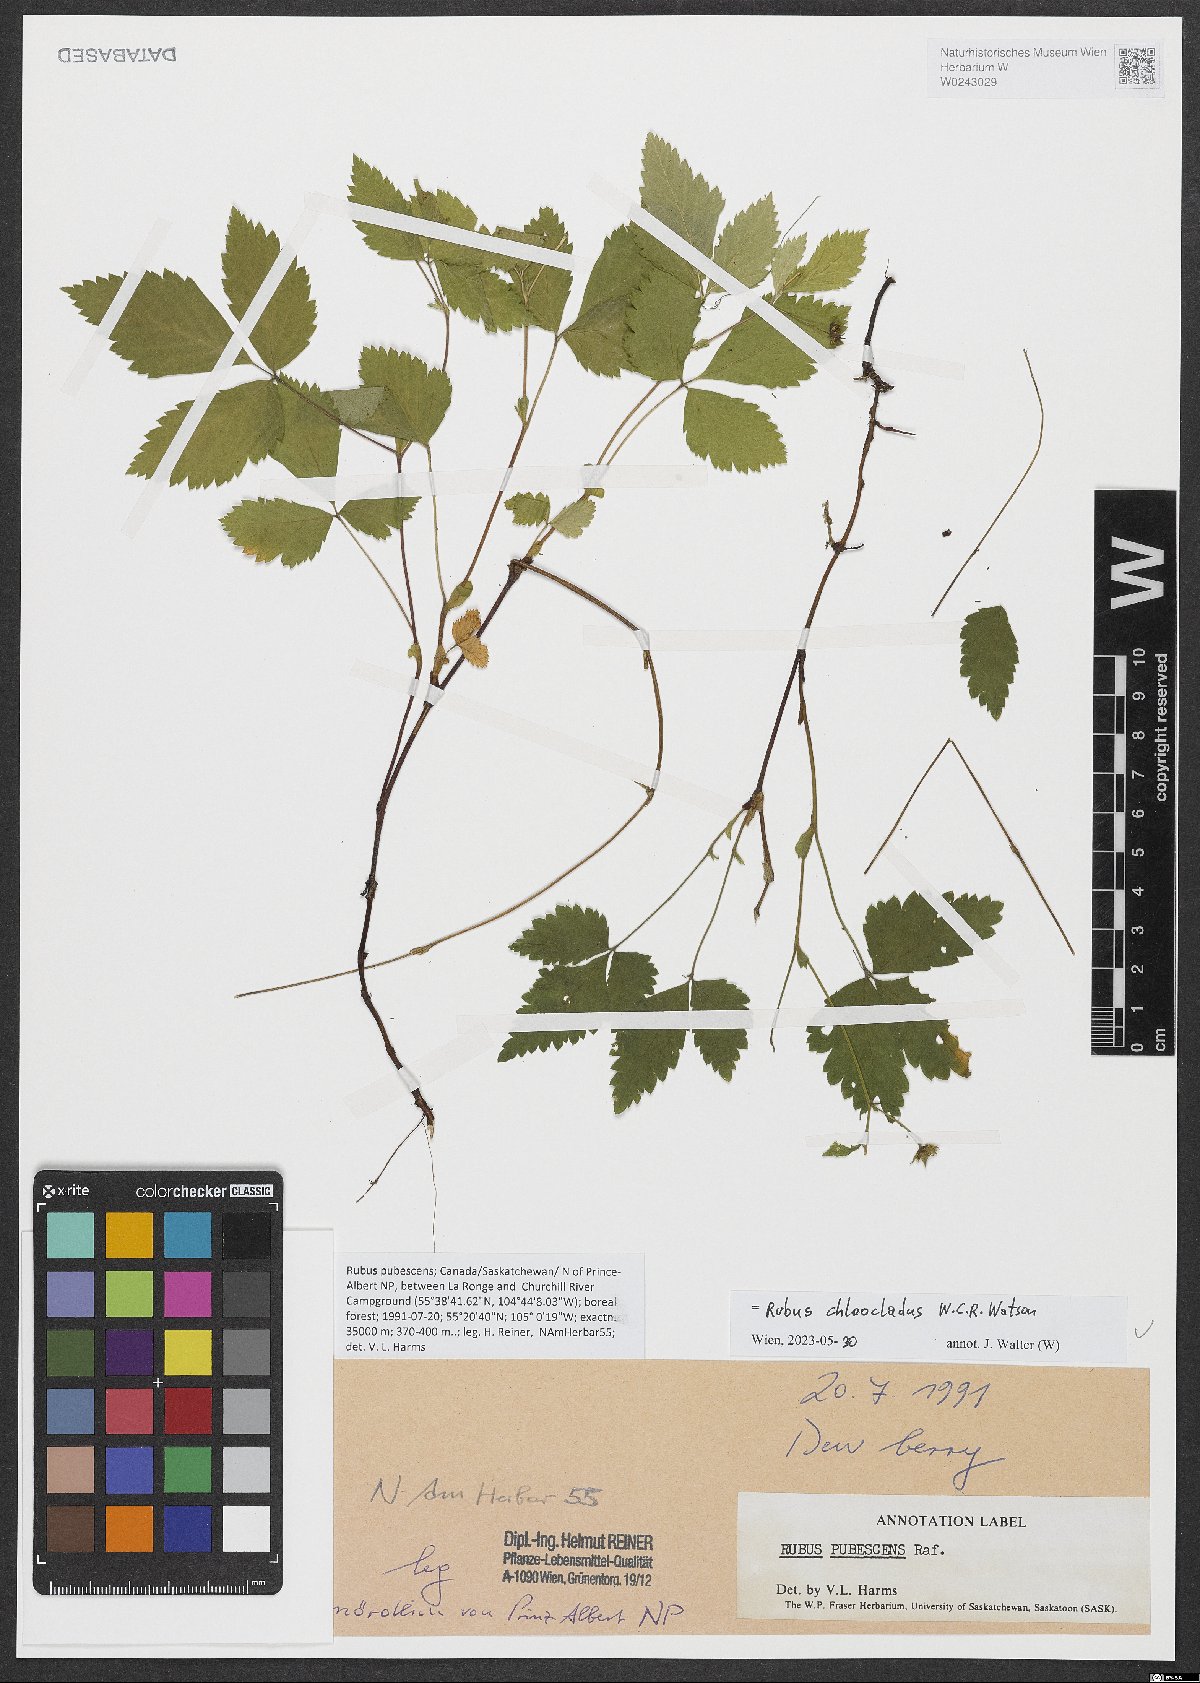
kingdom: Plantae
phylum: Tracheophyta
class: Magnoliopsida
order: Rosales
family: Rosaceae
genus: Rubus
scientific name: Rubus chloocladus
